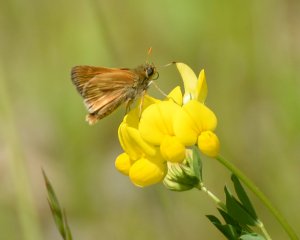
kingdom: Animalia
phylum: Arthropoda
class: Insecta
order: Lepidoptera
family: Hesperiidae
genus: Polites
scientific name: Polites
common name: Long Dash Skipper
